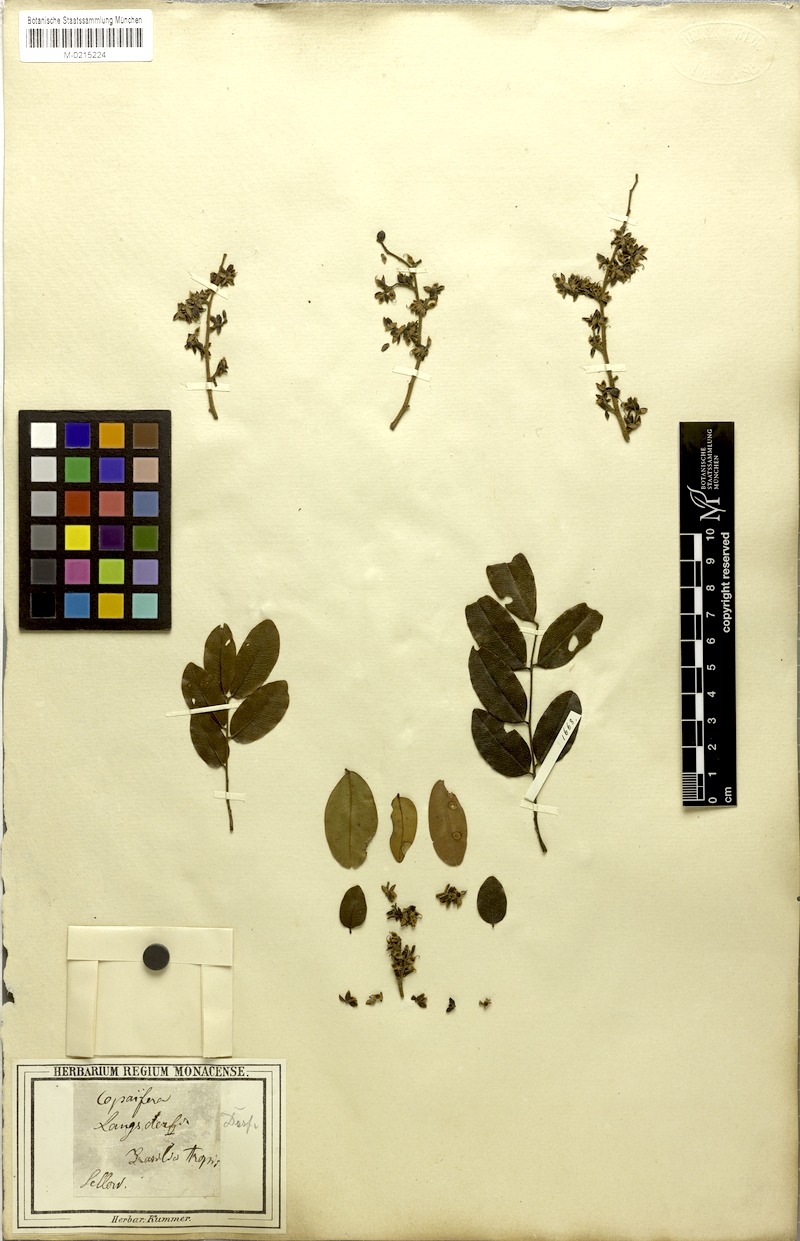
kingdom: Plantae
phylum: Tracheophyta
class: Magnoliopsida
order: Fabales
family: Fabaceae
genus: Copaifera
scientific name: Copaifera langsdorffii
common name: Brazilian diesel tree
